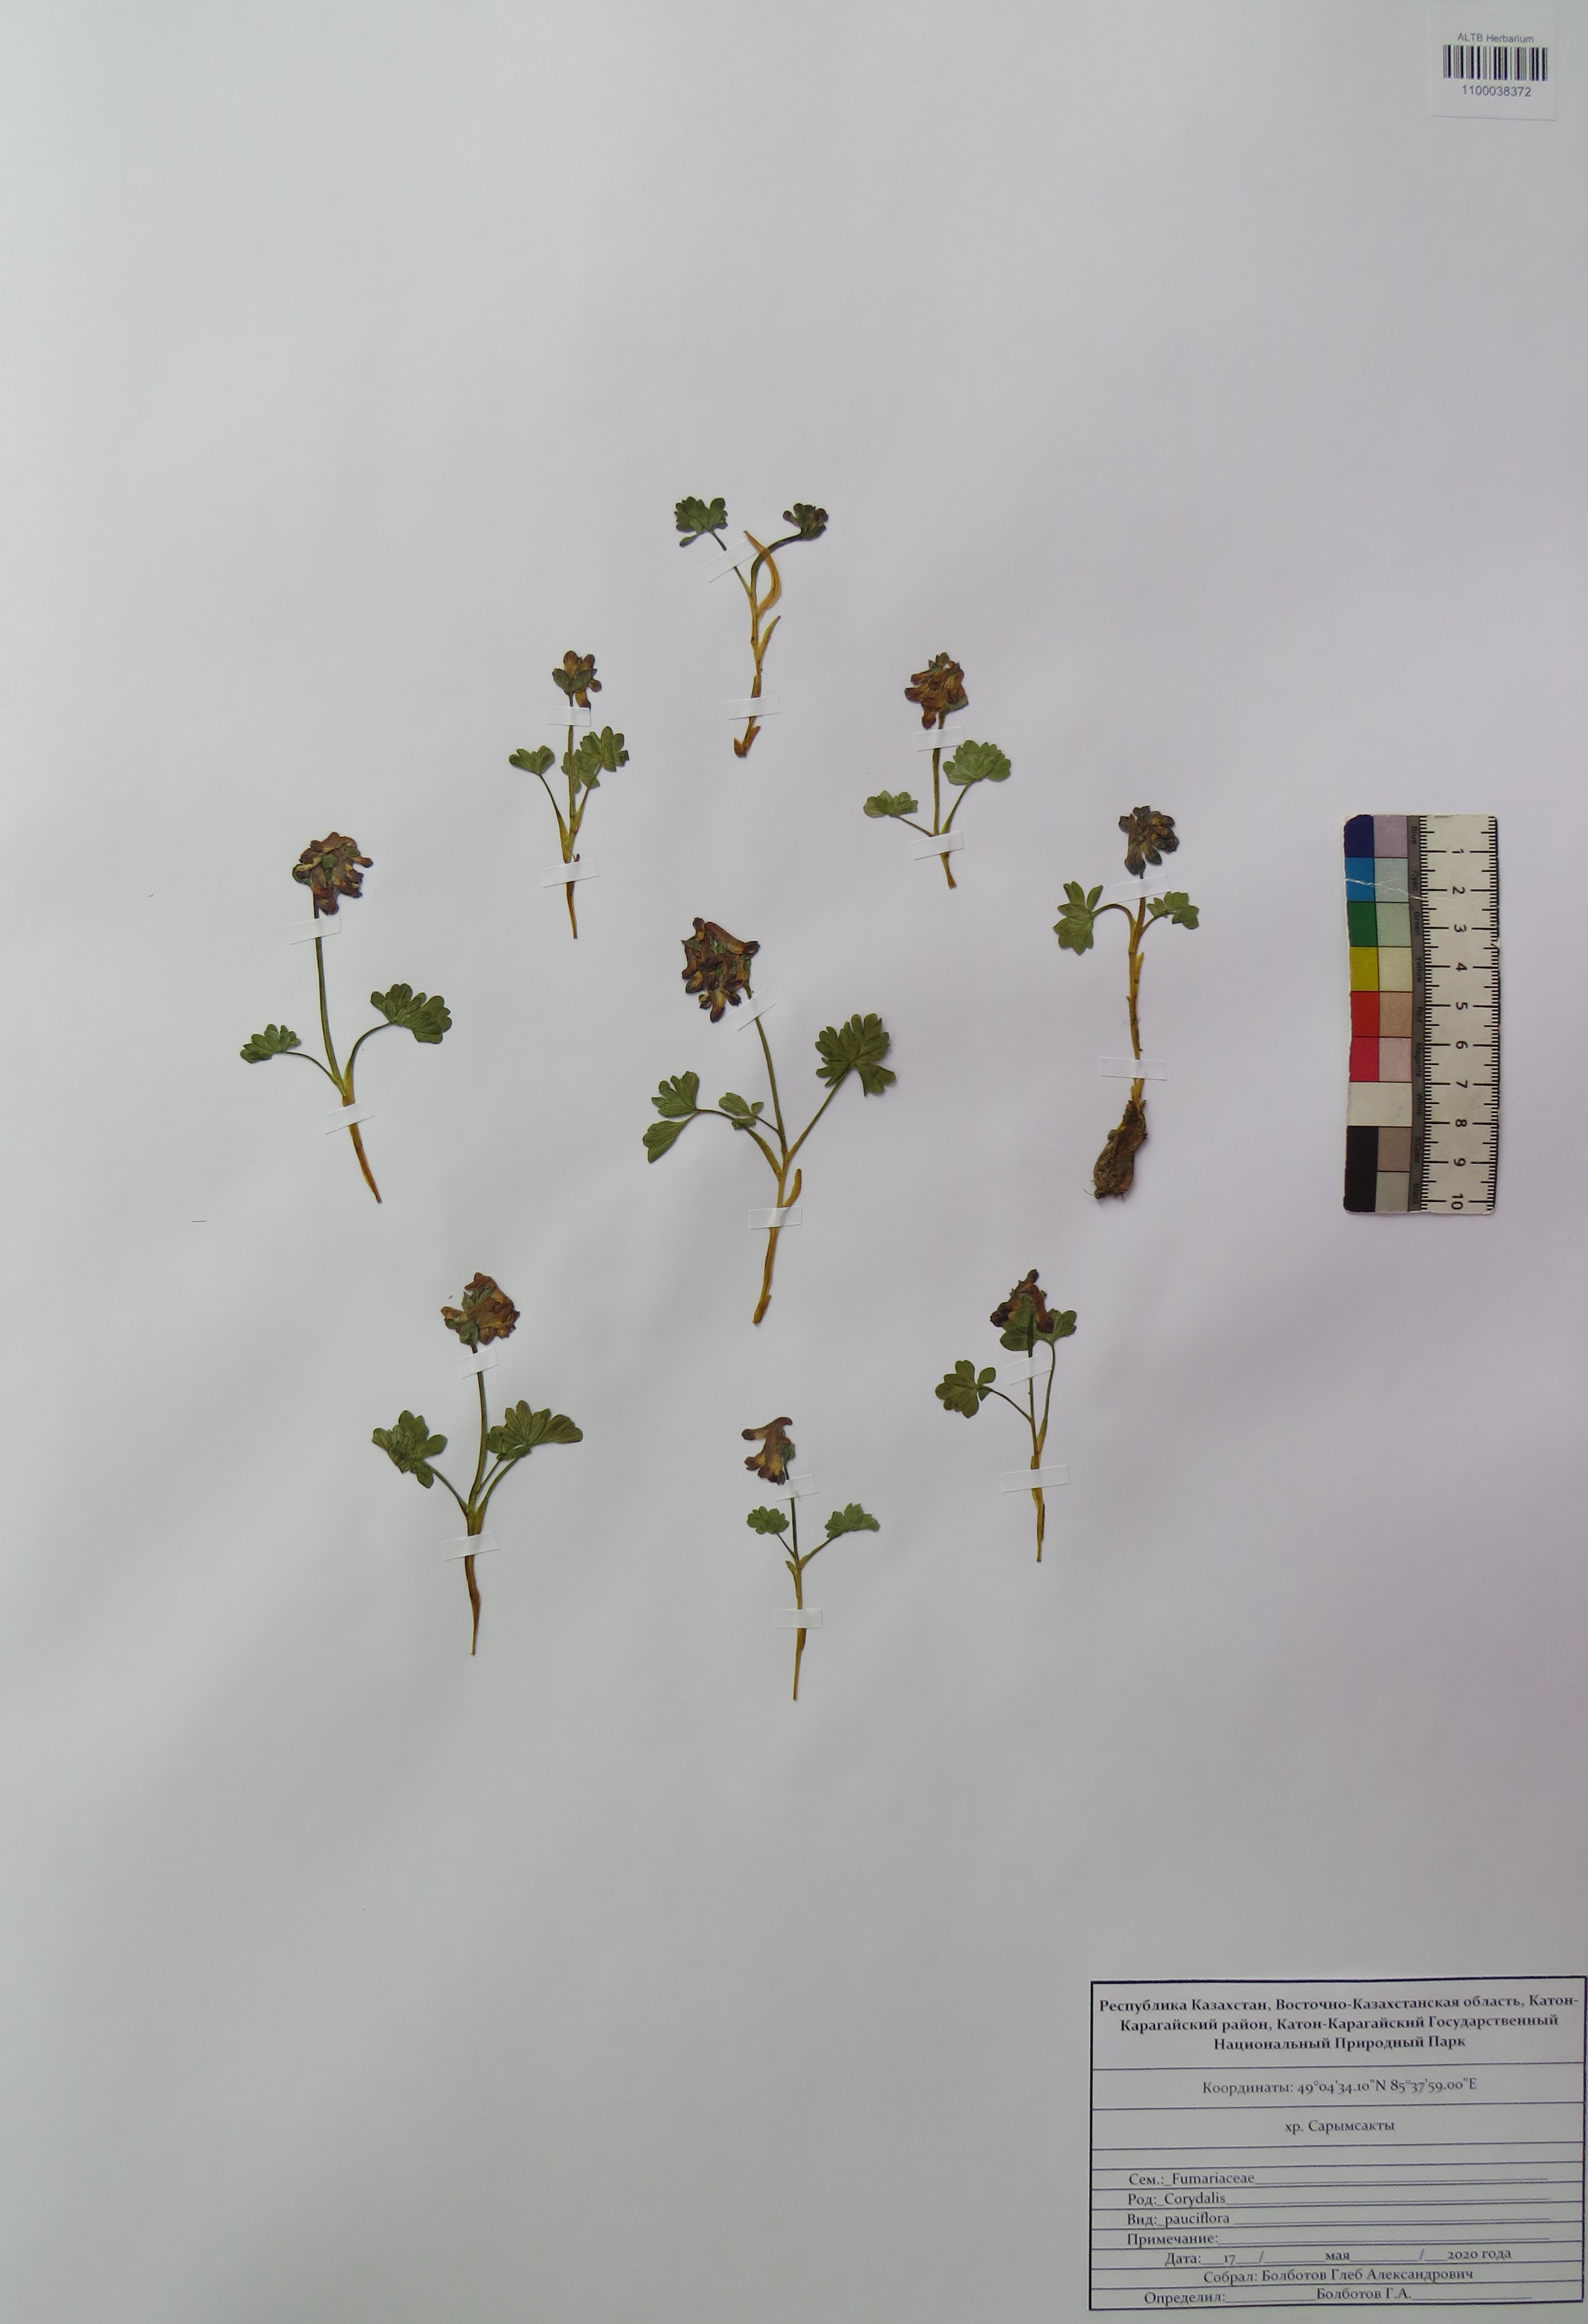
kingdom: Plantae
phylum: Tracheophyta
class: Magnoliopsida
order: Ranunculales
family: Papaveraceae
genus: Corydalis
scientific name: Corydalis pauciflora
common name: Blue corydalis
